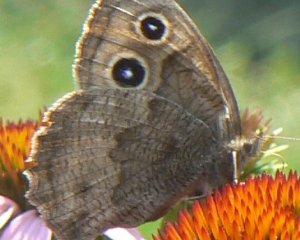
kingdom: Animalia
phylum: Arthropoda
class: Insecta
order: Lepidoptera
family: Nymphalidae
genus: Cercyonis
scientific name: Cercyonis pegala
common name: Common Wood-Nymph
